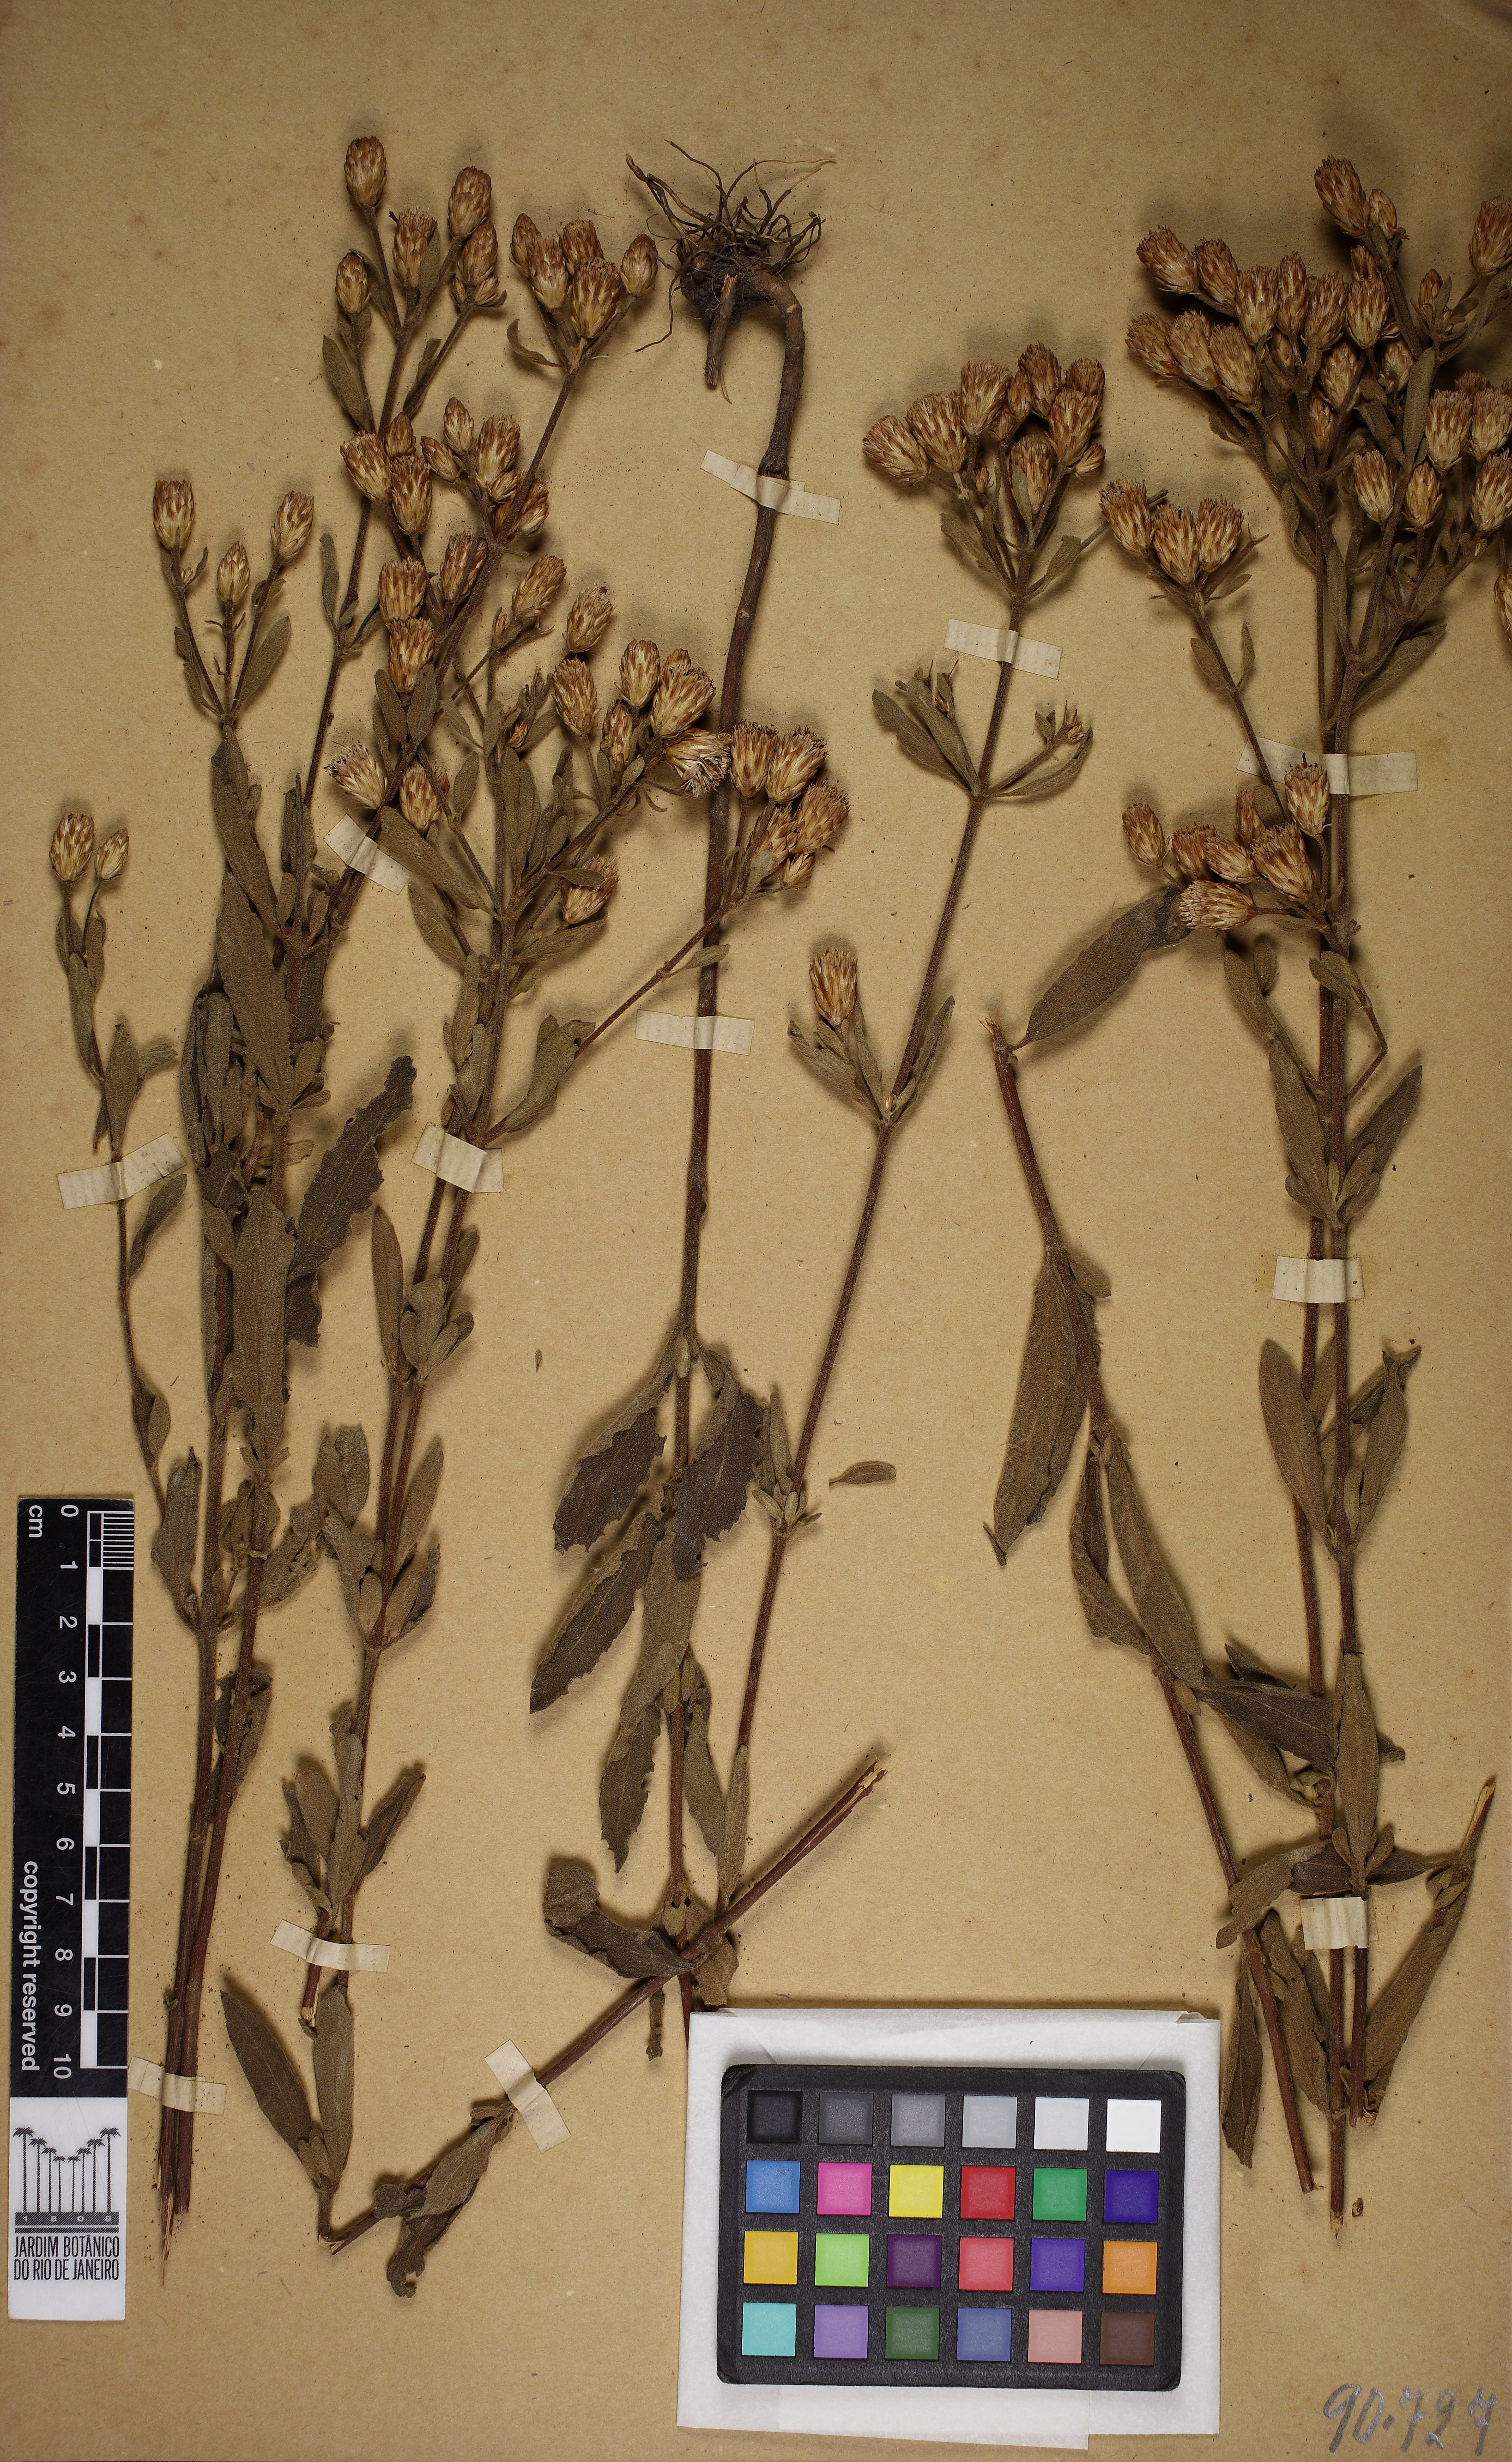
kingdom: Plantae
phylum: Tracheophyta
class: Magnoliopsida
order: Asterales
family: Asteraceae
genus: Chromolaena
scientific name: Chromolaena horminoides
